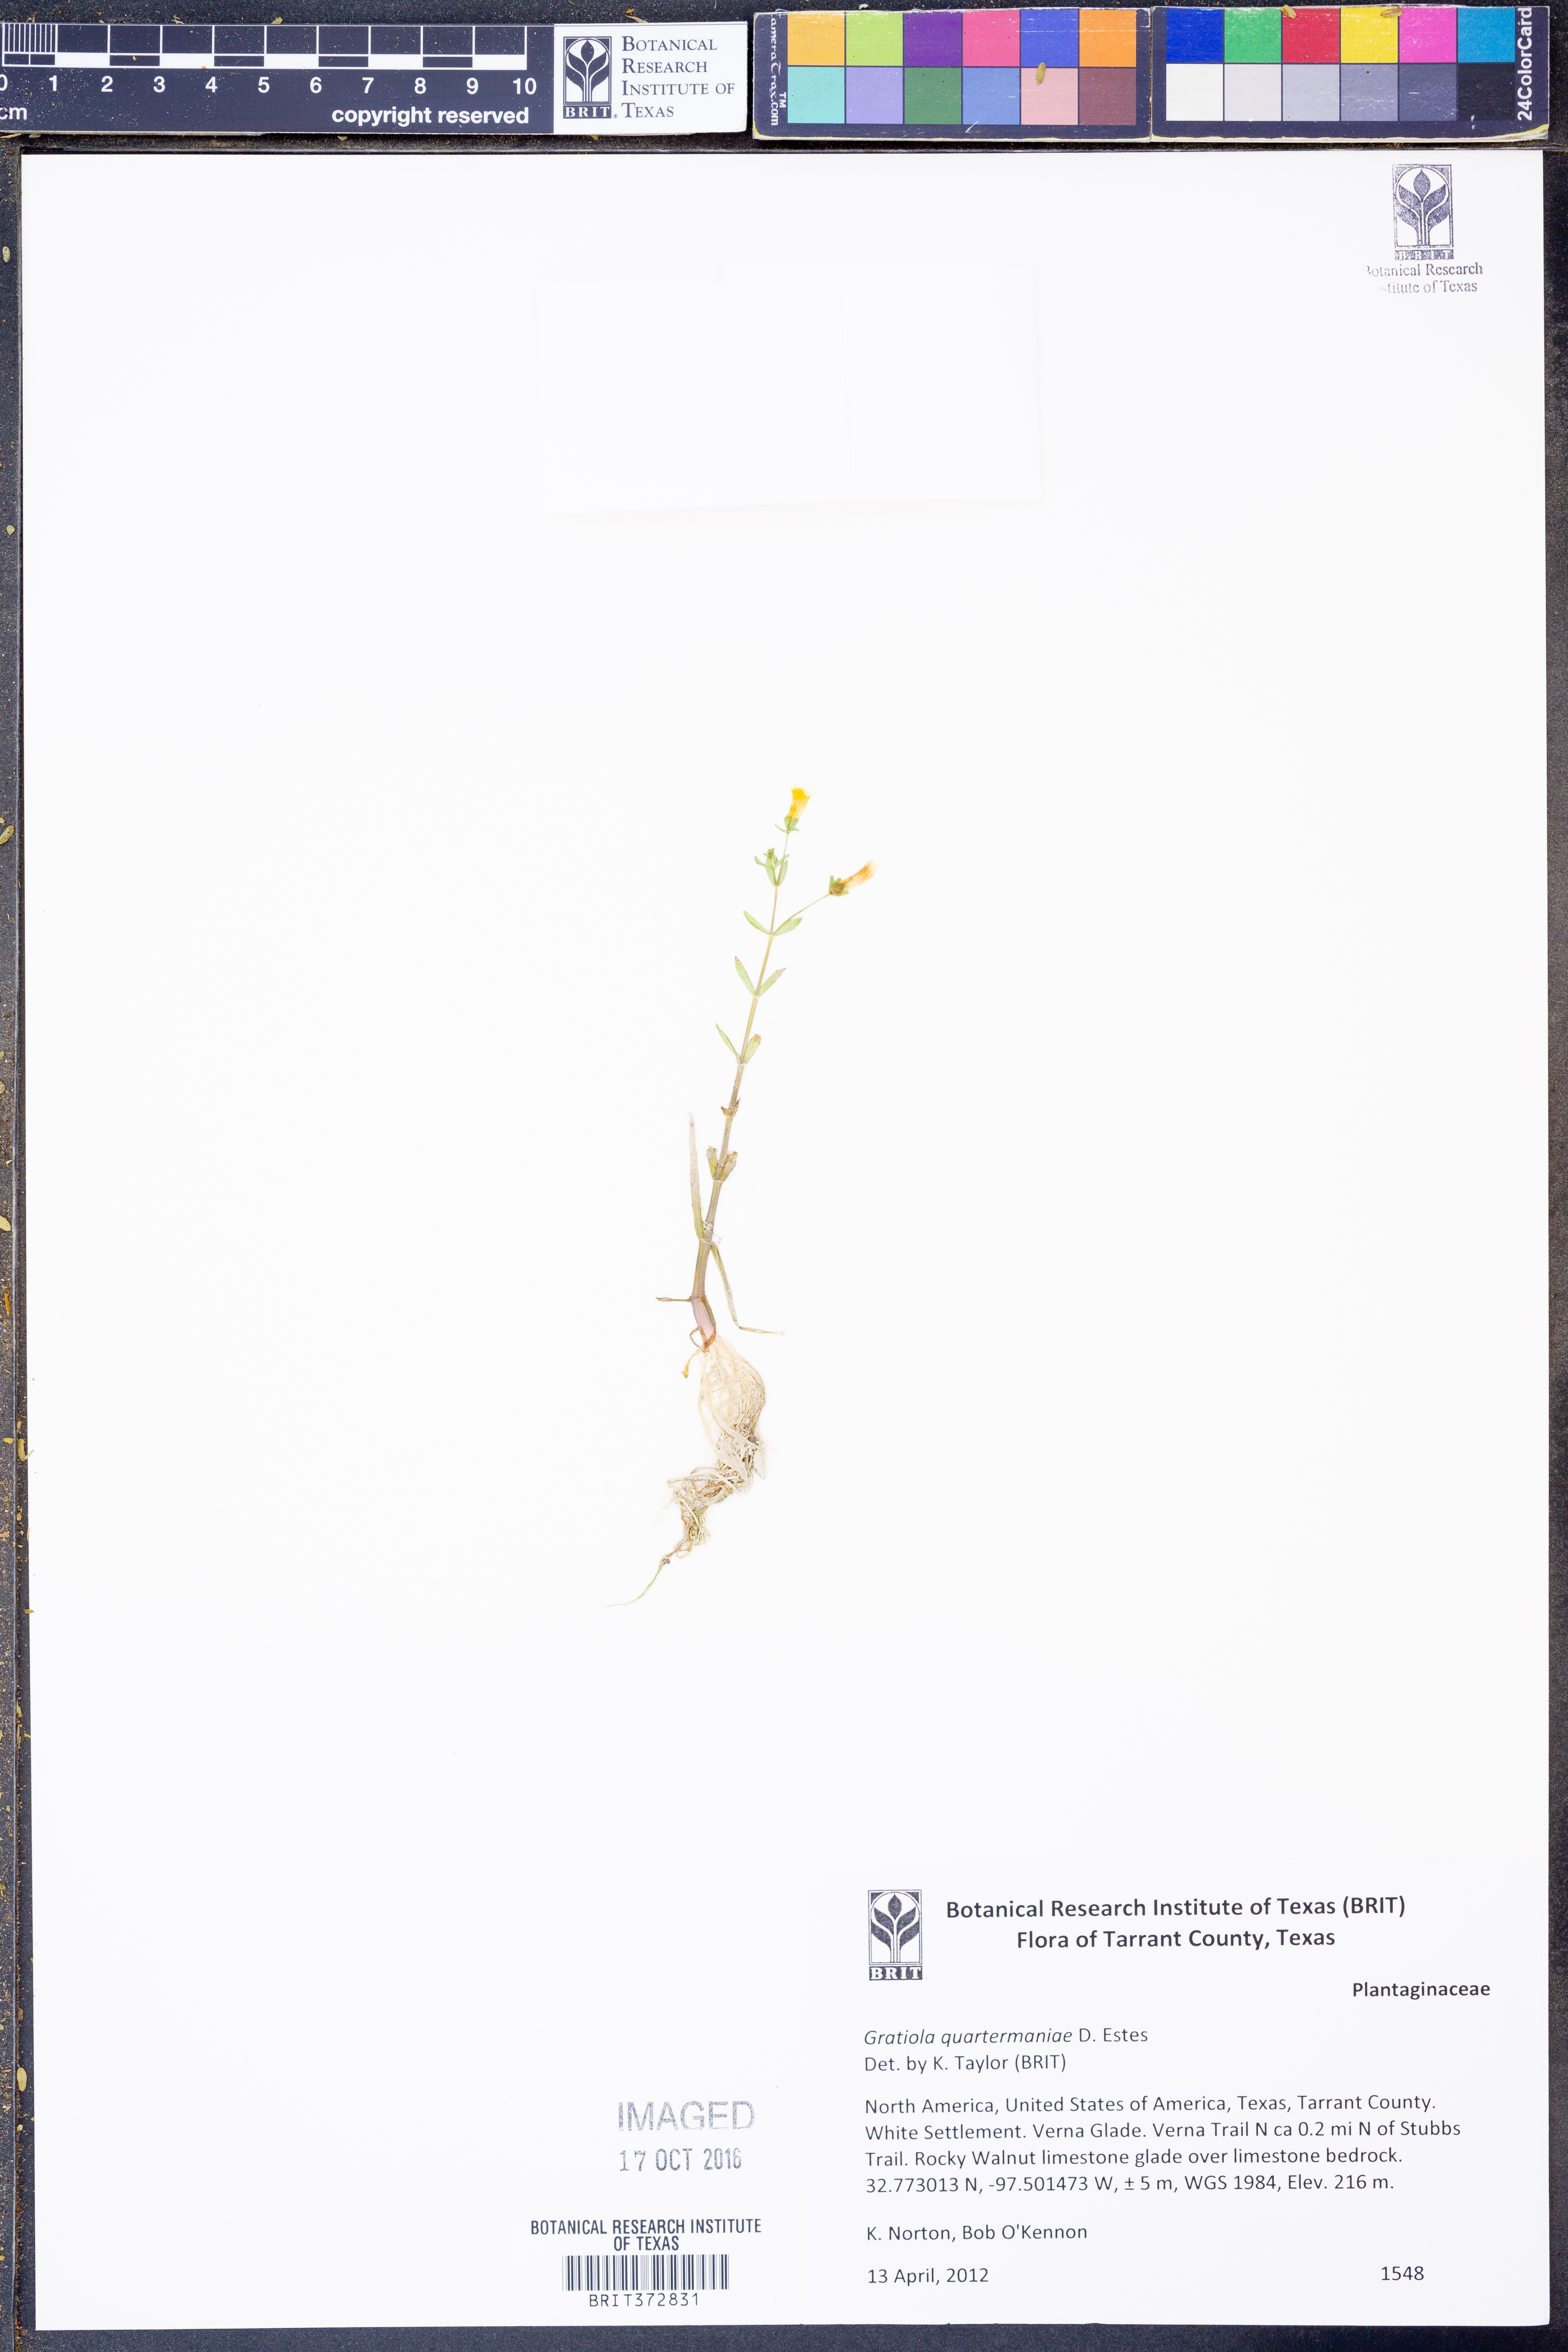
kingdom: Plantae
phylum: Tracheophyta
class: Magnoliopsida
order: Lamiales
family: Plantaginaceae
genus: Gratiola
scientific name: Gratiola quartermaniae
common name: Quarterman's hedge-hyssop
